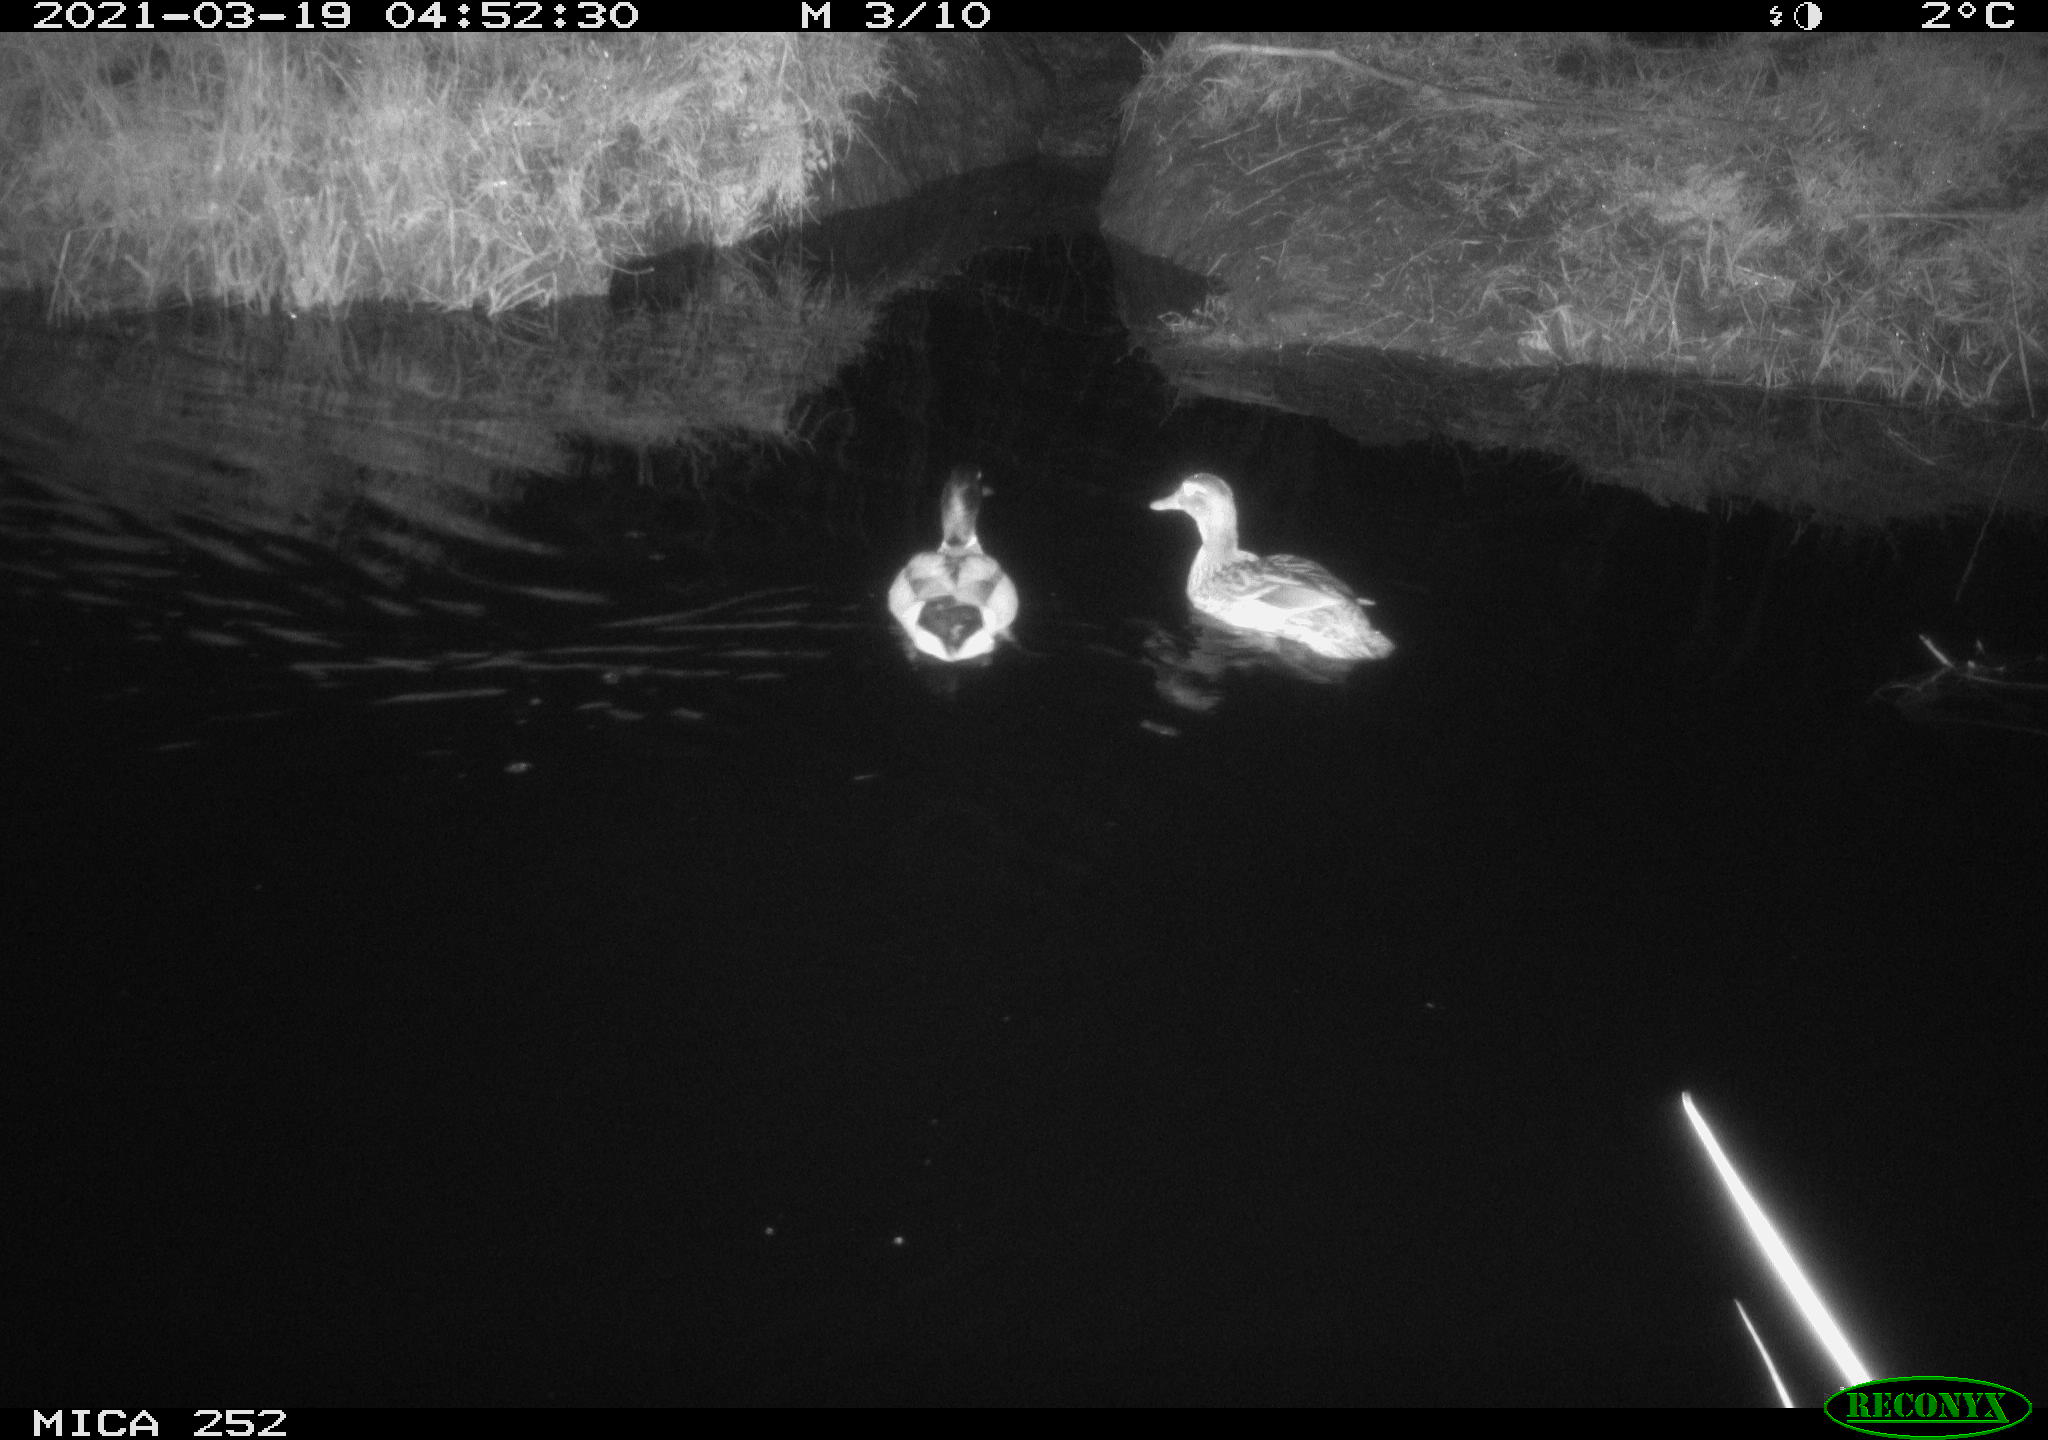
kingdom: Animalia
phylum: Chordata
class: Aves
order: Anseriformes
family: Anatidae
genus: Anas
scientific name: Anas platyrhynchos
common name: Mallard
